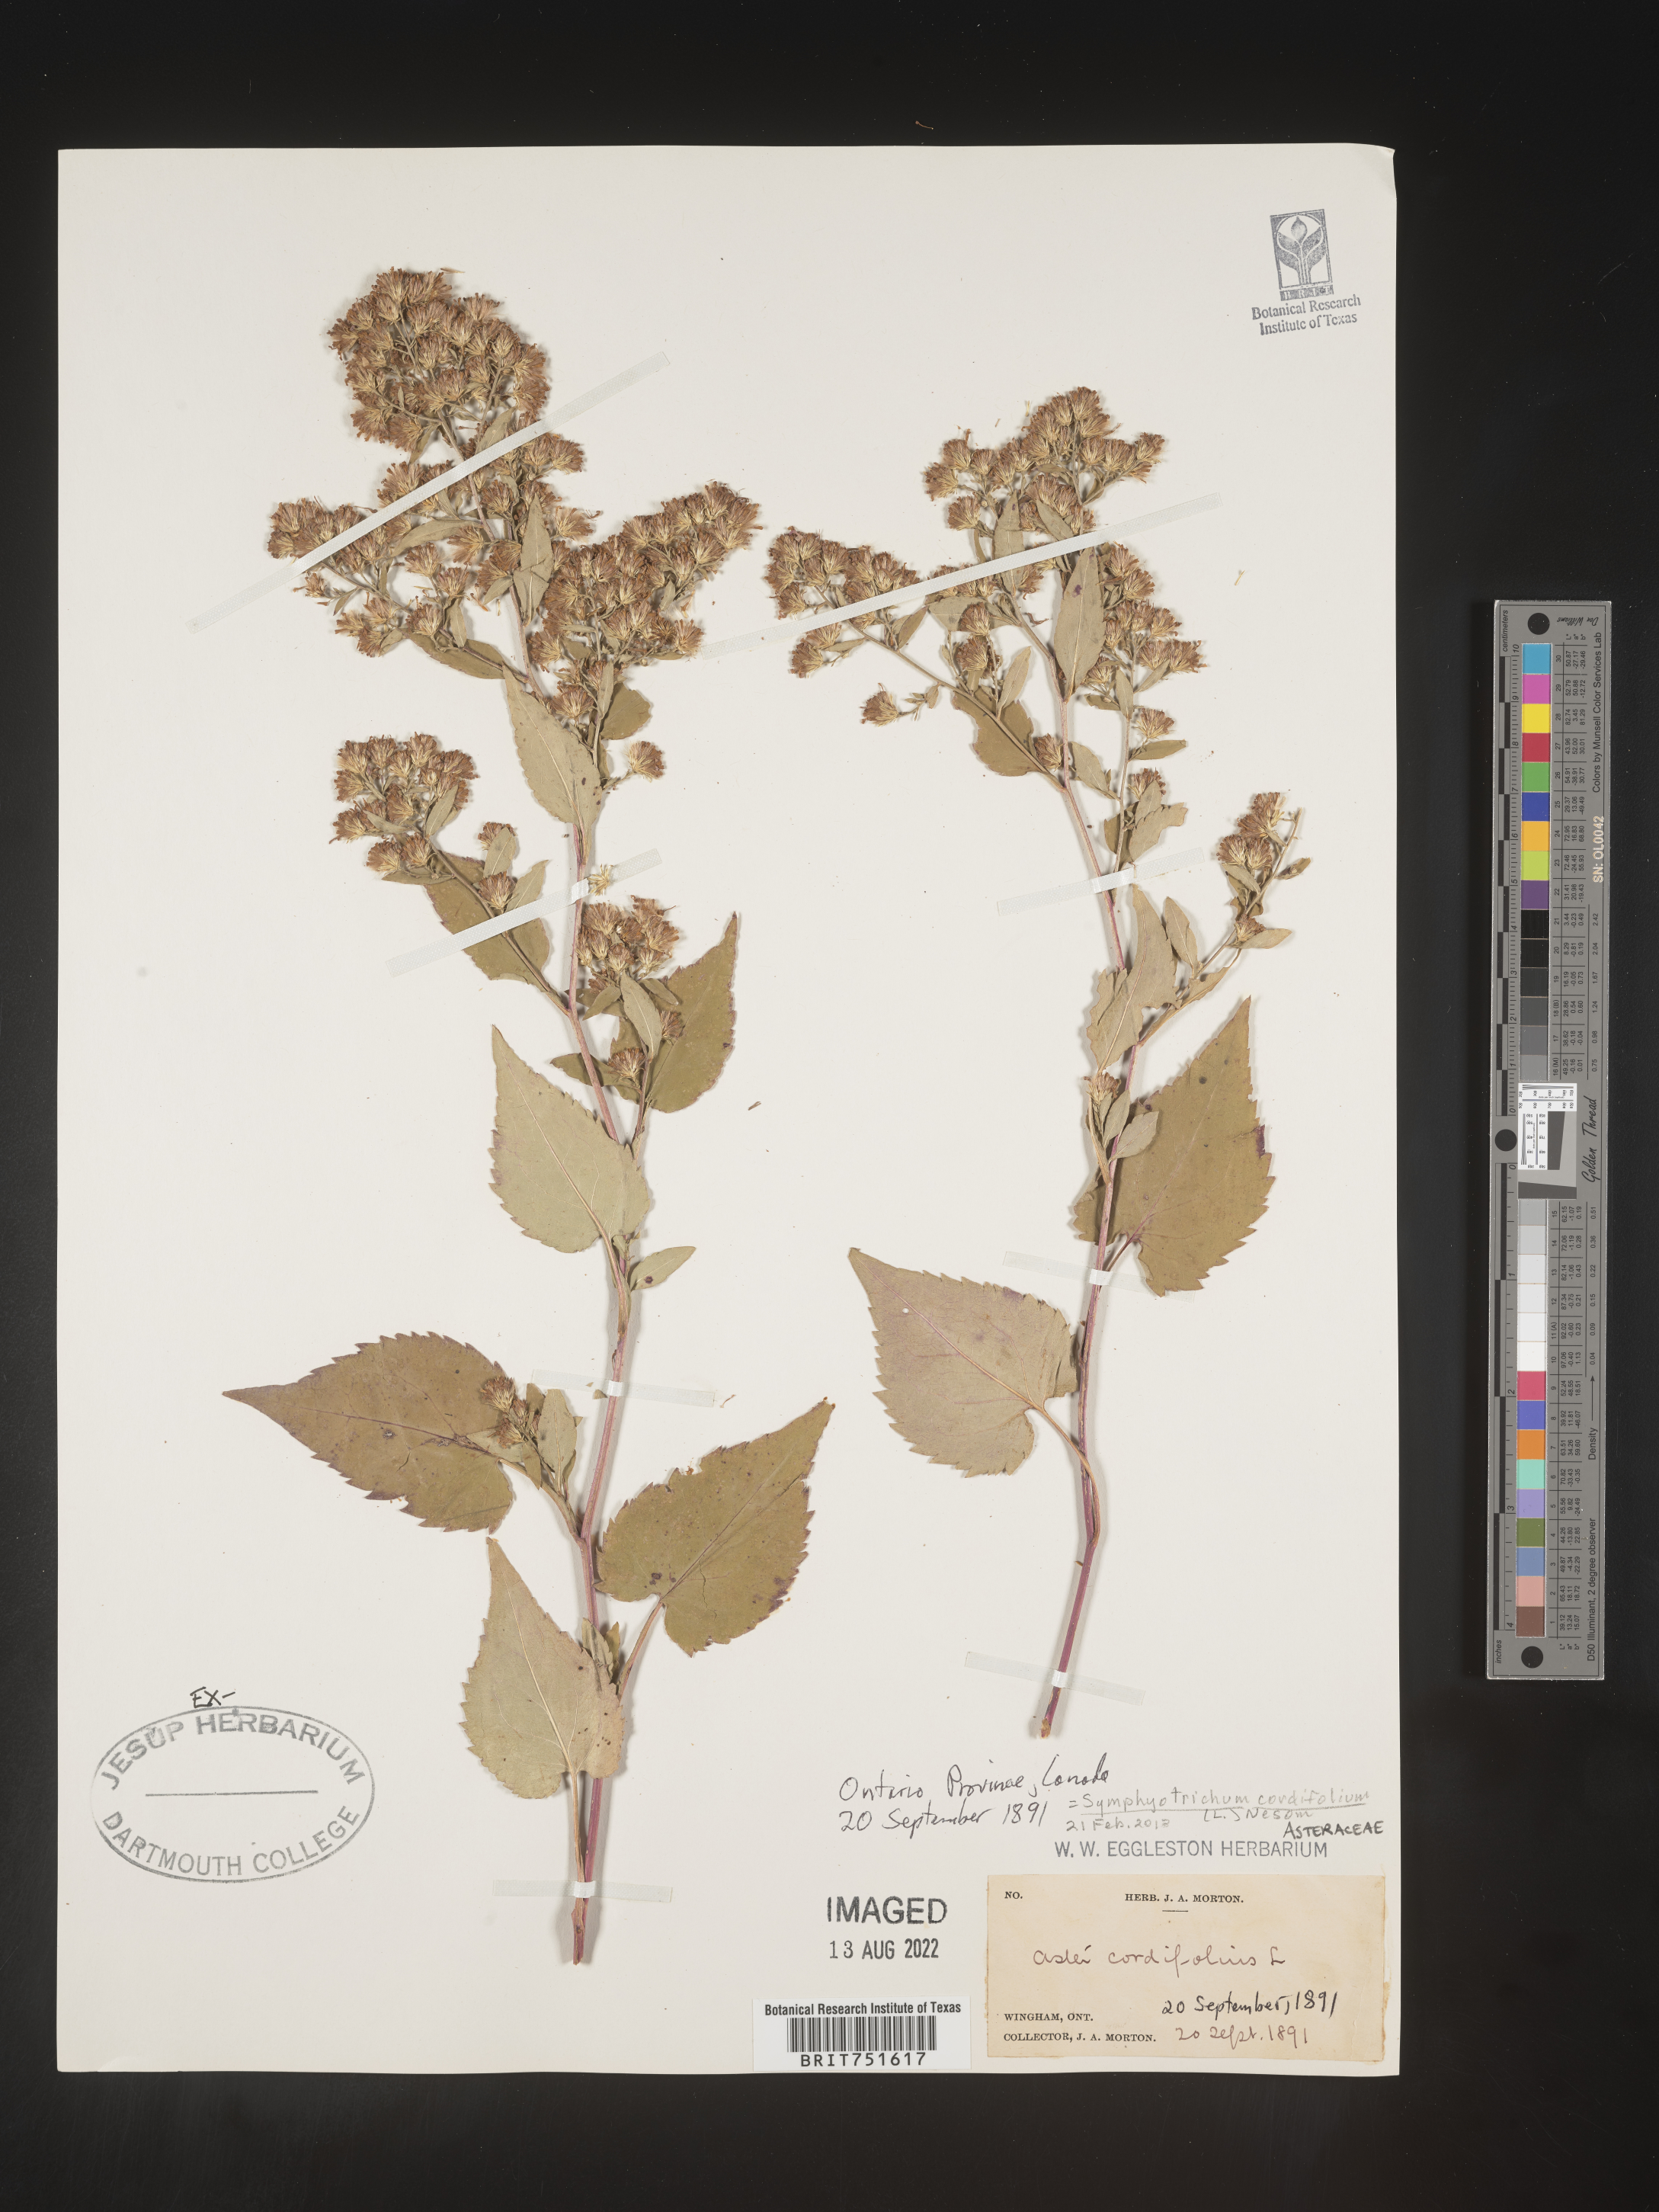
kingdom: Plantae
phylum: Tracheophyta
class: Magnoliopsida
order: Asterales
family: Asteraceae
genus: Symphyotrichum
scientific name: Symphyotrichum cordifolium
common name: Beeweed
